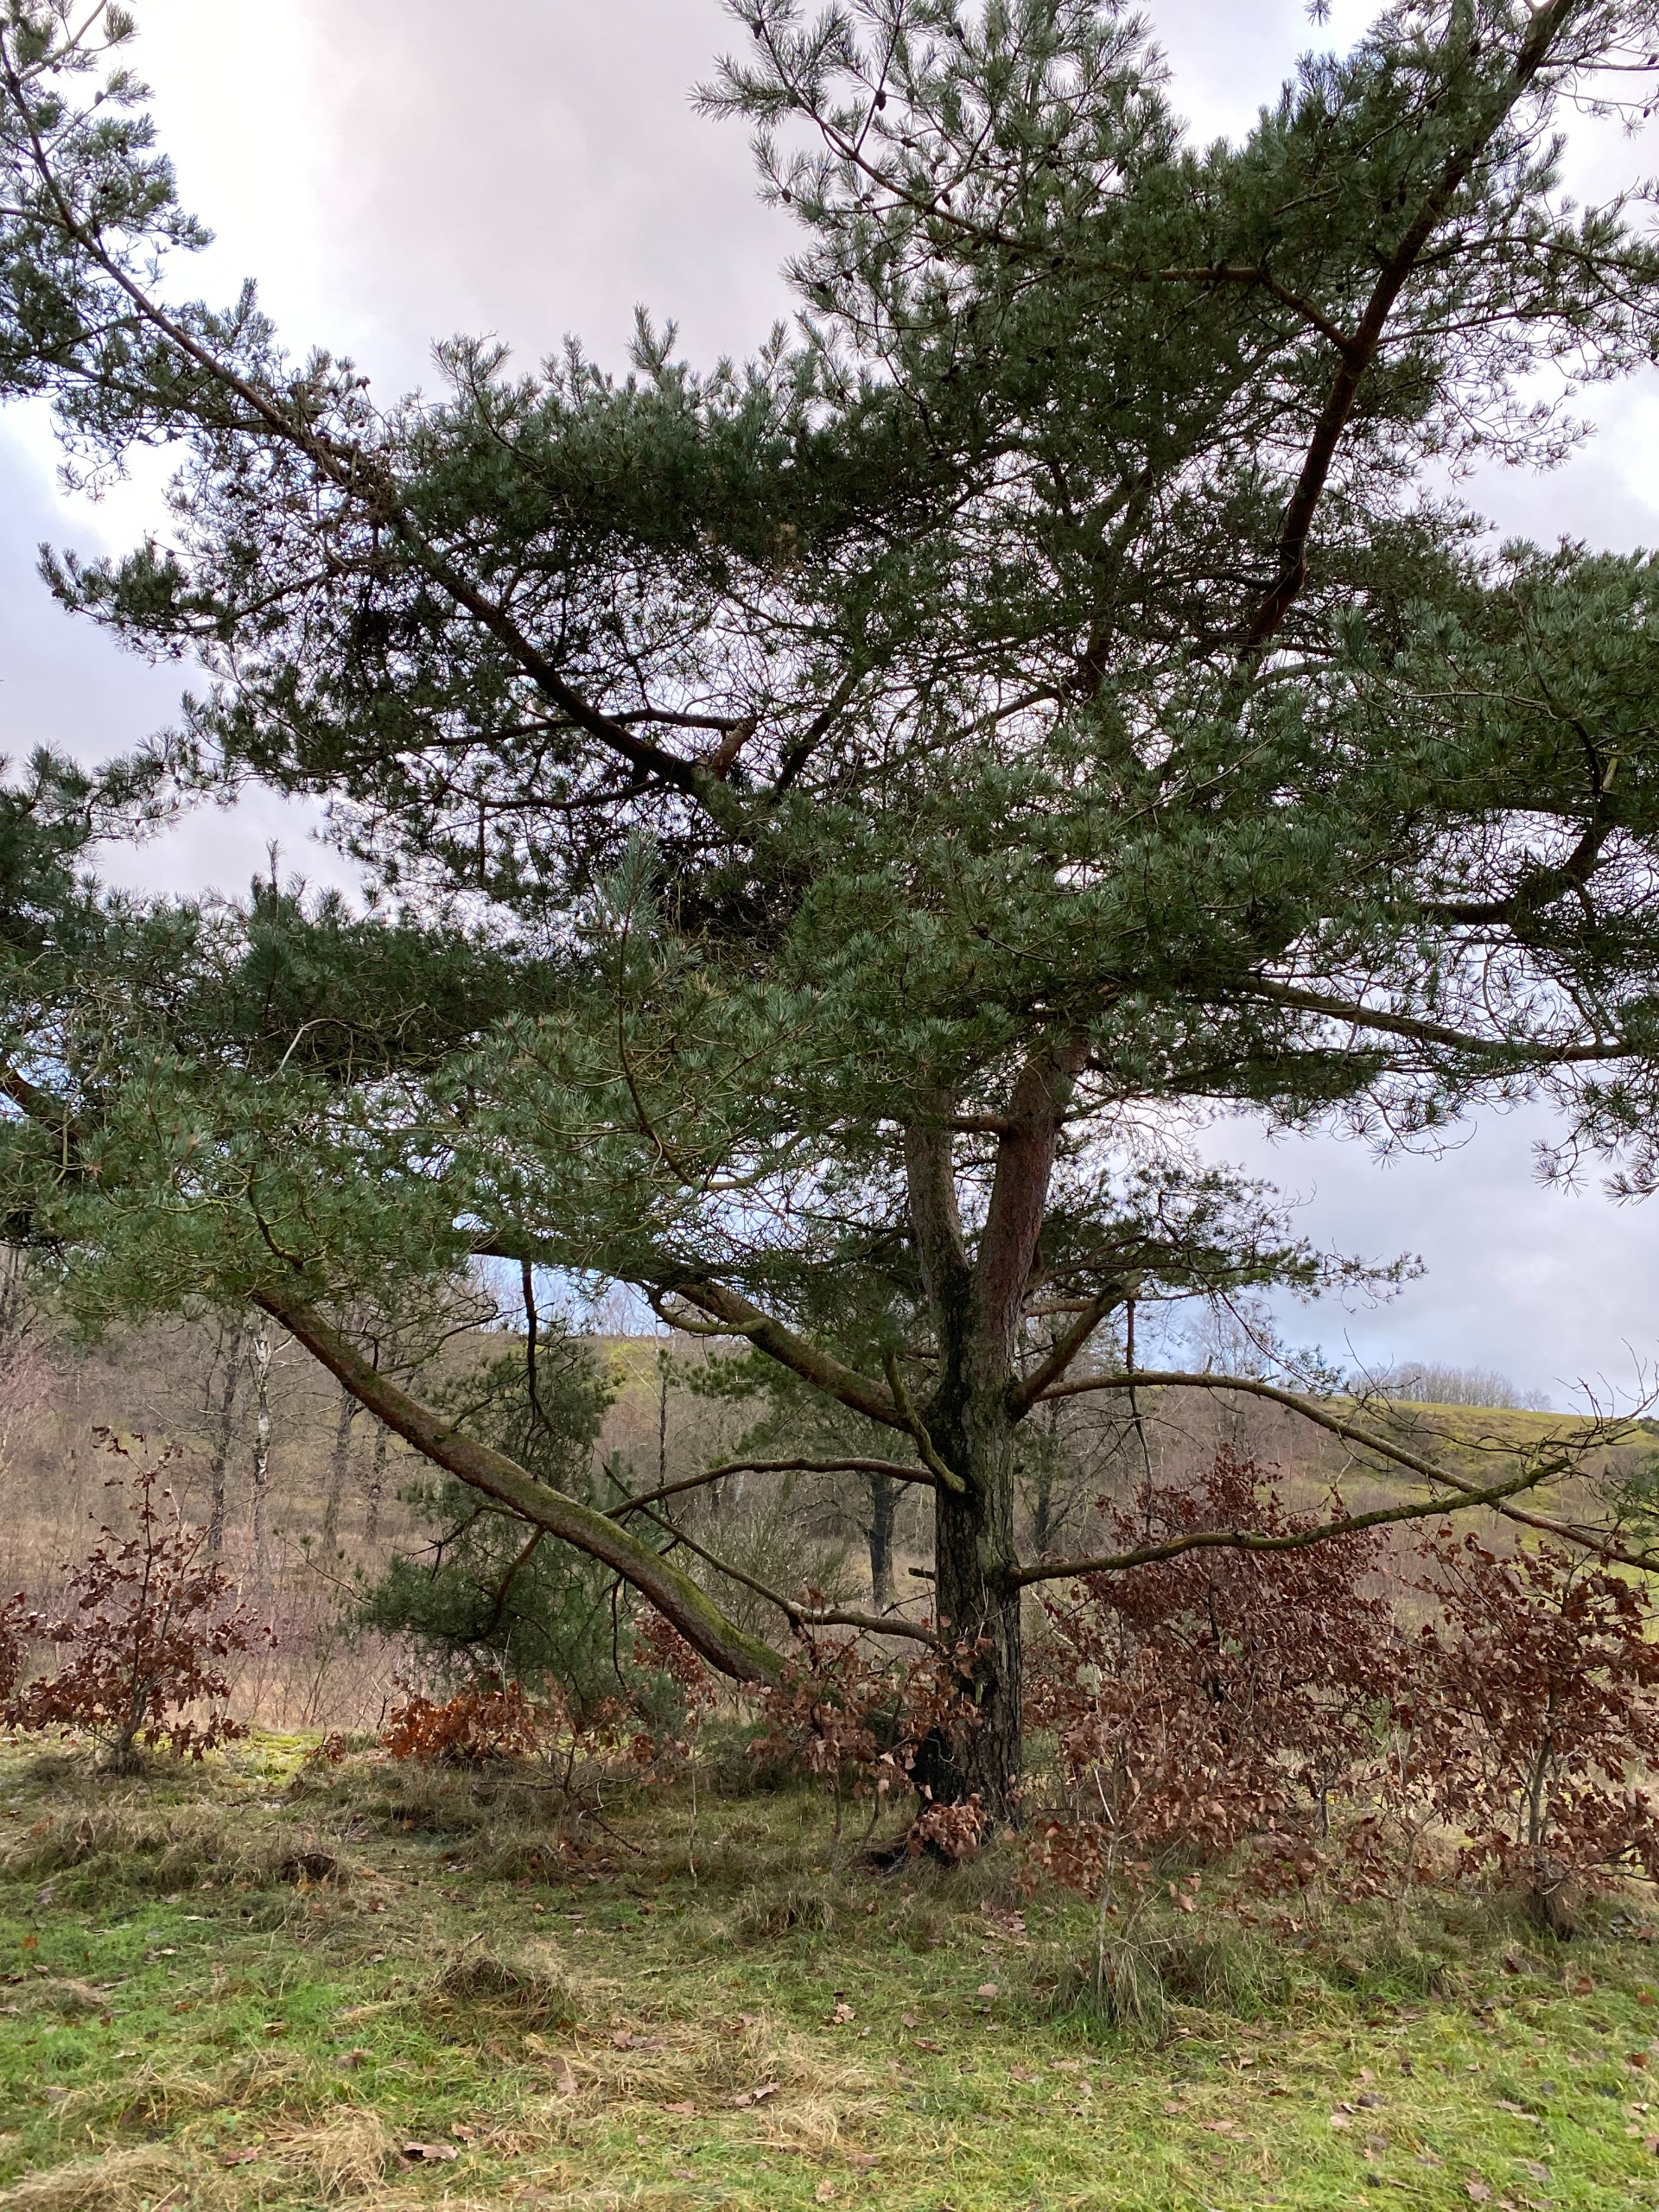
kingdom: Plantae
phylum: Tracheophyta
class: Pinopsida
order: Pinales
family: Pinaceae
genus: Pinus
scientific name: Pinus sylvestris
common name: Skov-fyr
